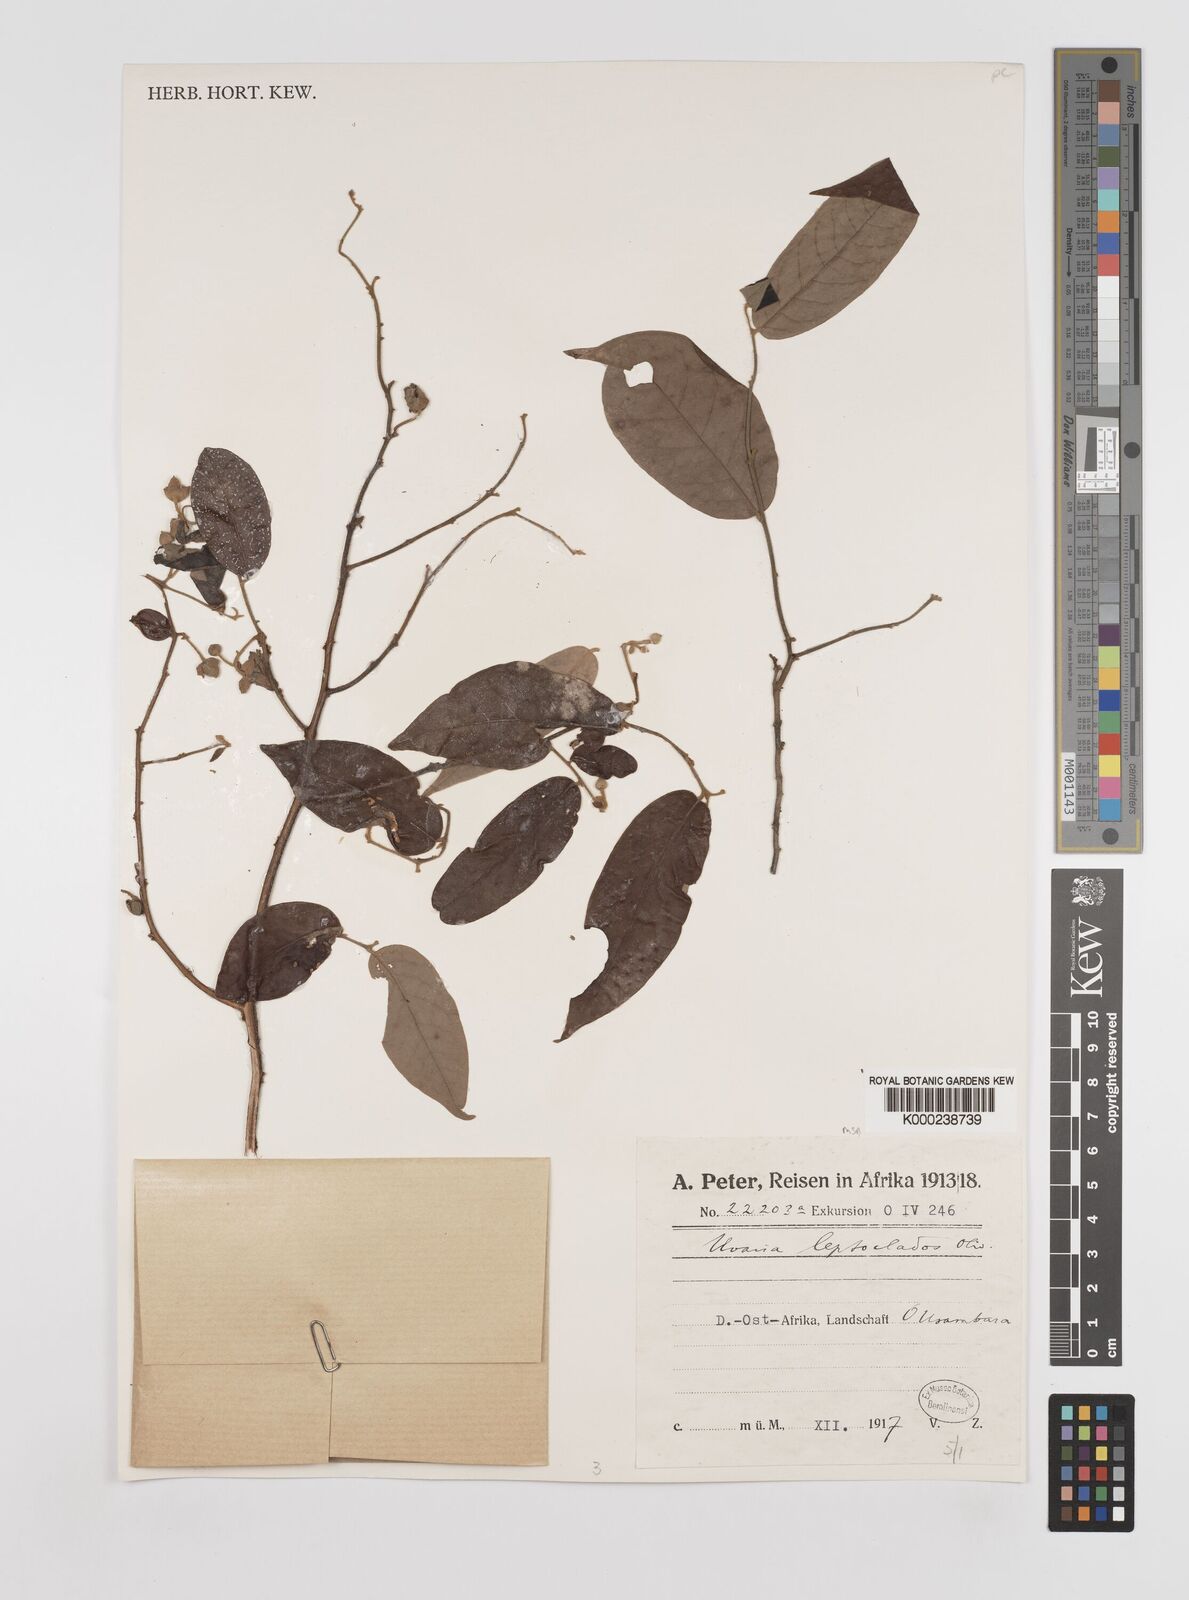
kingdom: Plantae
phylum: Tracheophyta
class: Magnoliopsida
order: Magnoliales
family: Annonaceae
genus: Uvaria
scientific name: Uvaria leptocladon
